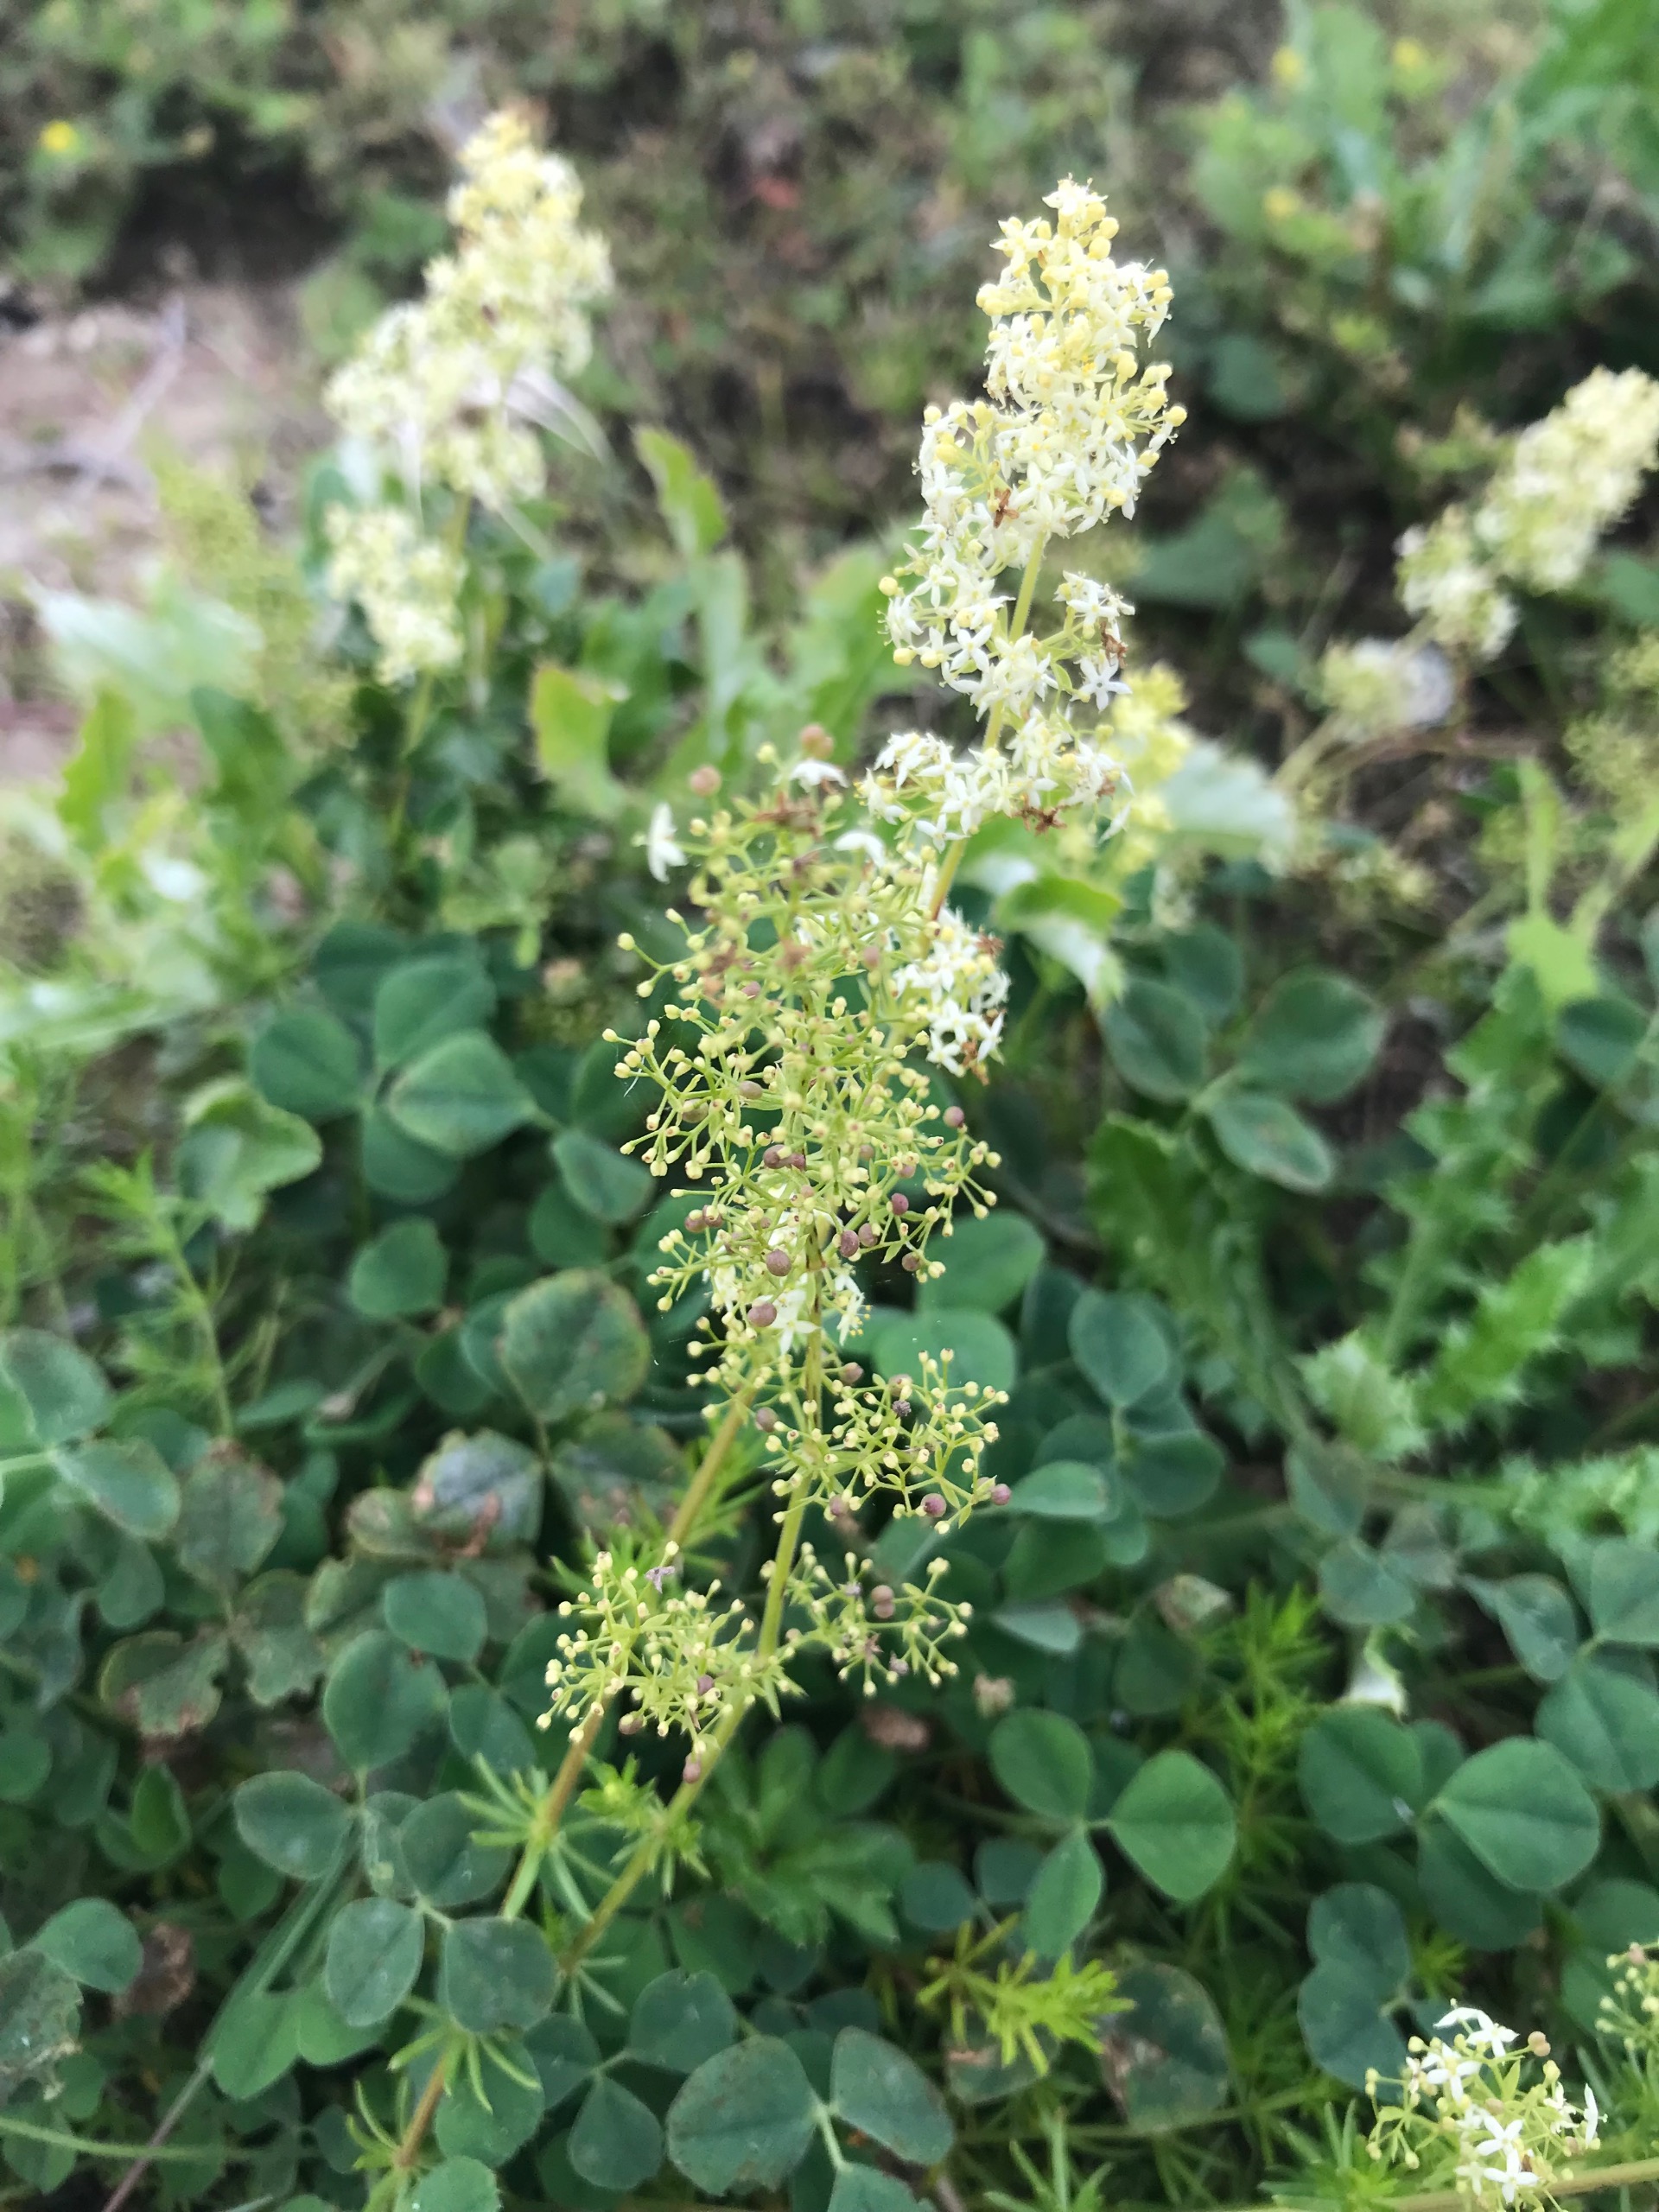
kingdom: Plantae
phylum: Tracheophyta
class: Magnoliopsida
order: Gentianales
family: Rubiaceae
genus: Galium
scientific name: Galium mollugo
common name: Hvid snerre
